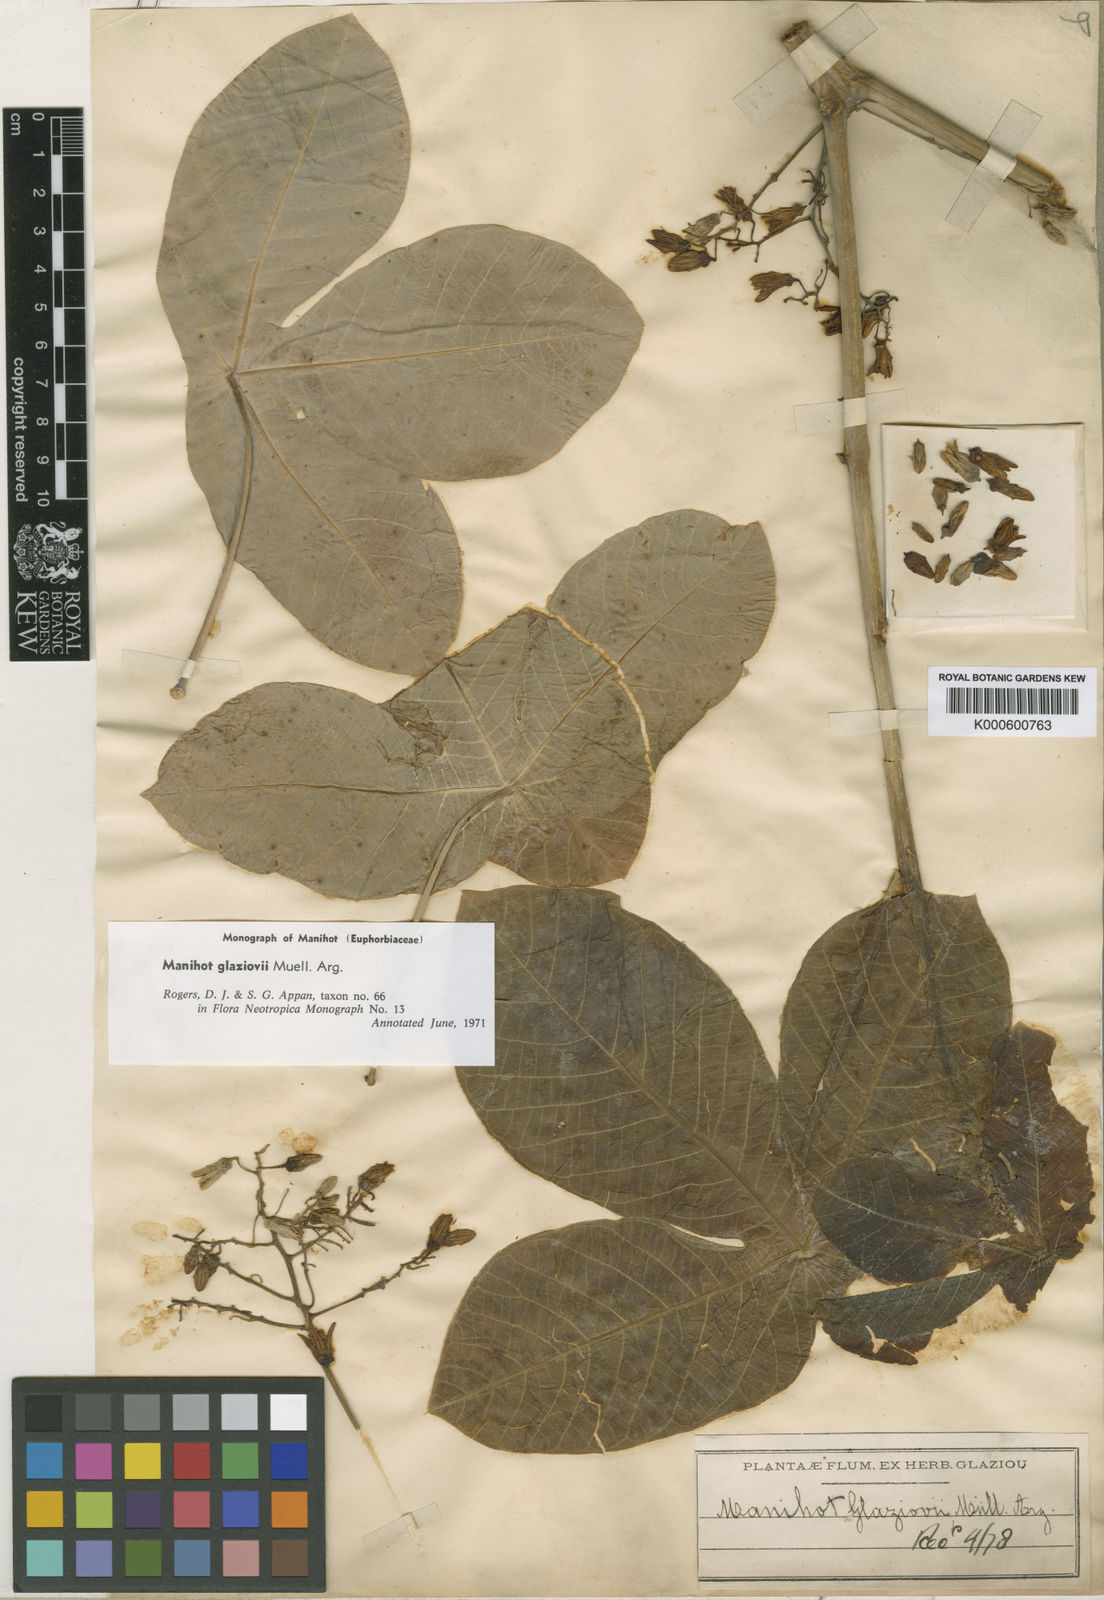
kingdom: Plantae
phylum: Tracheophyta
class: Magnoliopsida
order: Malpighiales
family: Euphorbiaceae
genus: Manihot
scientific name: Manihot
